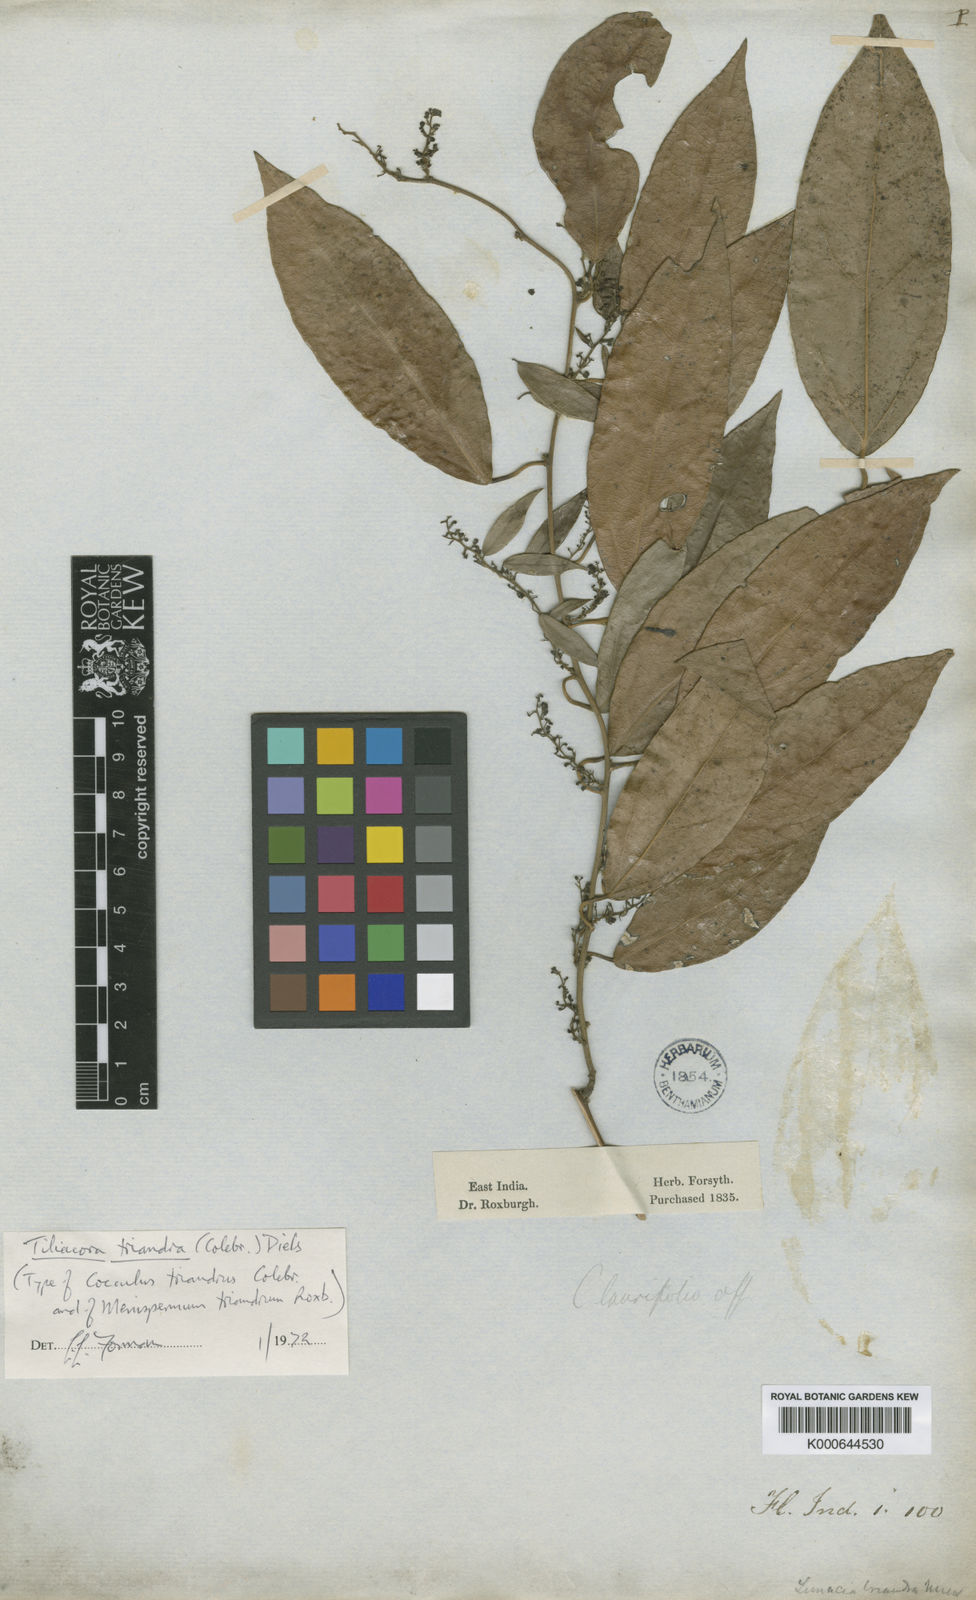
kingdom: Plantae
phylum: Tracheophyta
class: Magnoliopsida
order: Ranunculales
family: Menispermaceae
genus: Tiliacora
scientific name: Tiliacora triandra
